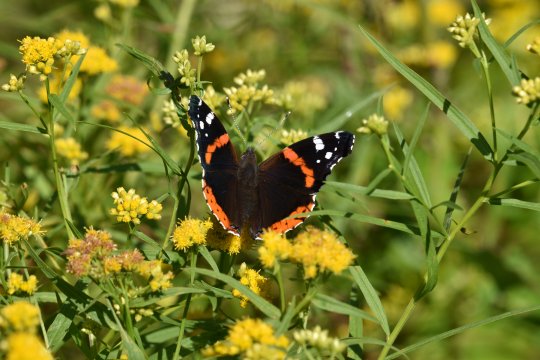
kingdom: Animalia
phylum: Arthropoda
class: Insecta
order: Lepidoptera
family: Nymphalidae
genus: Vanessa
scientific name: Vanessa atalanta
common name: Red Admiral
